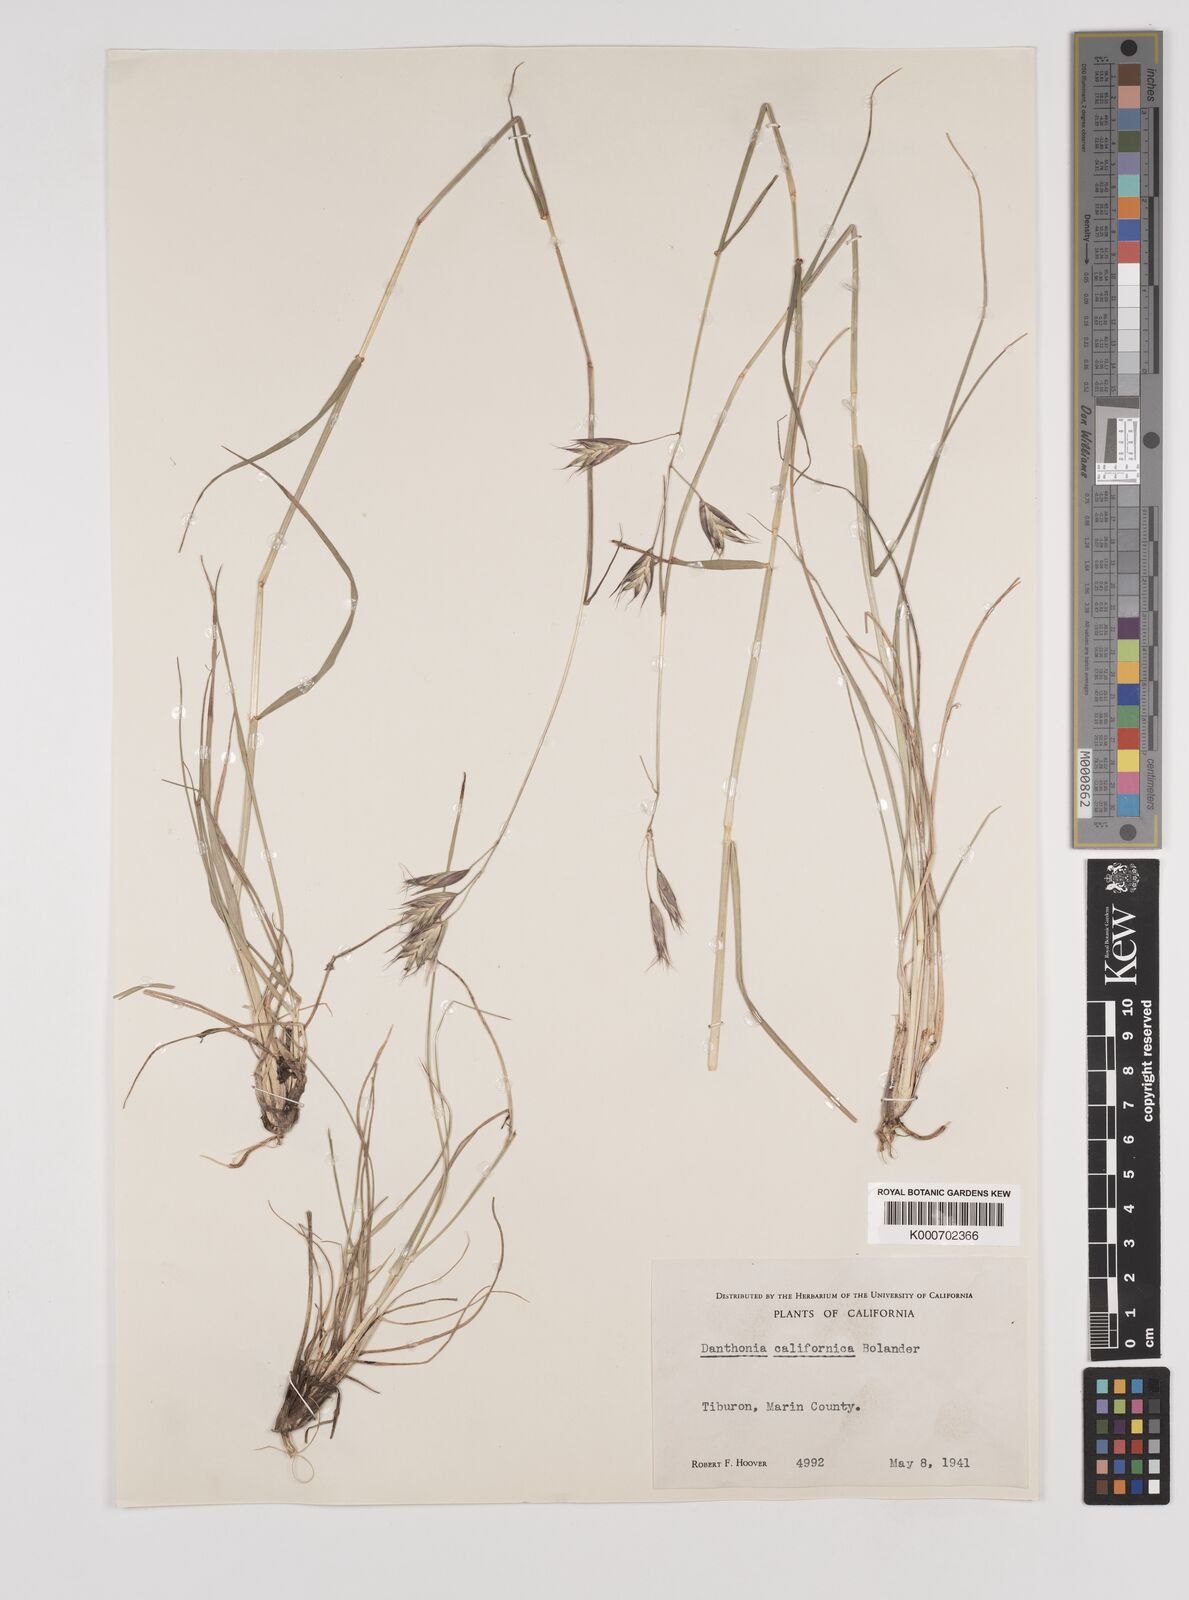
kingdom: Plantae
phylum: Tracheophyta
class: Liliopsida
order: Poales
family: Poaceae
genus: Danthonia
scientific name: Danthonia californica
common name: California oat grass
